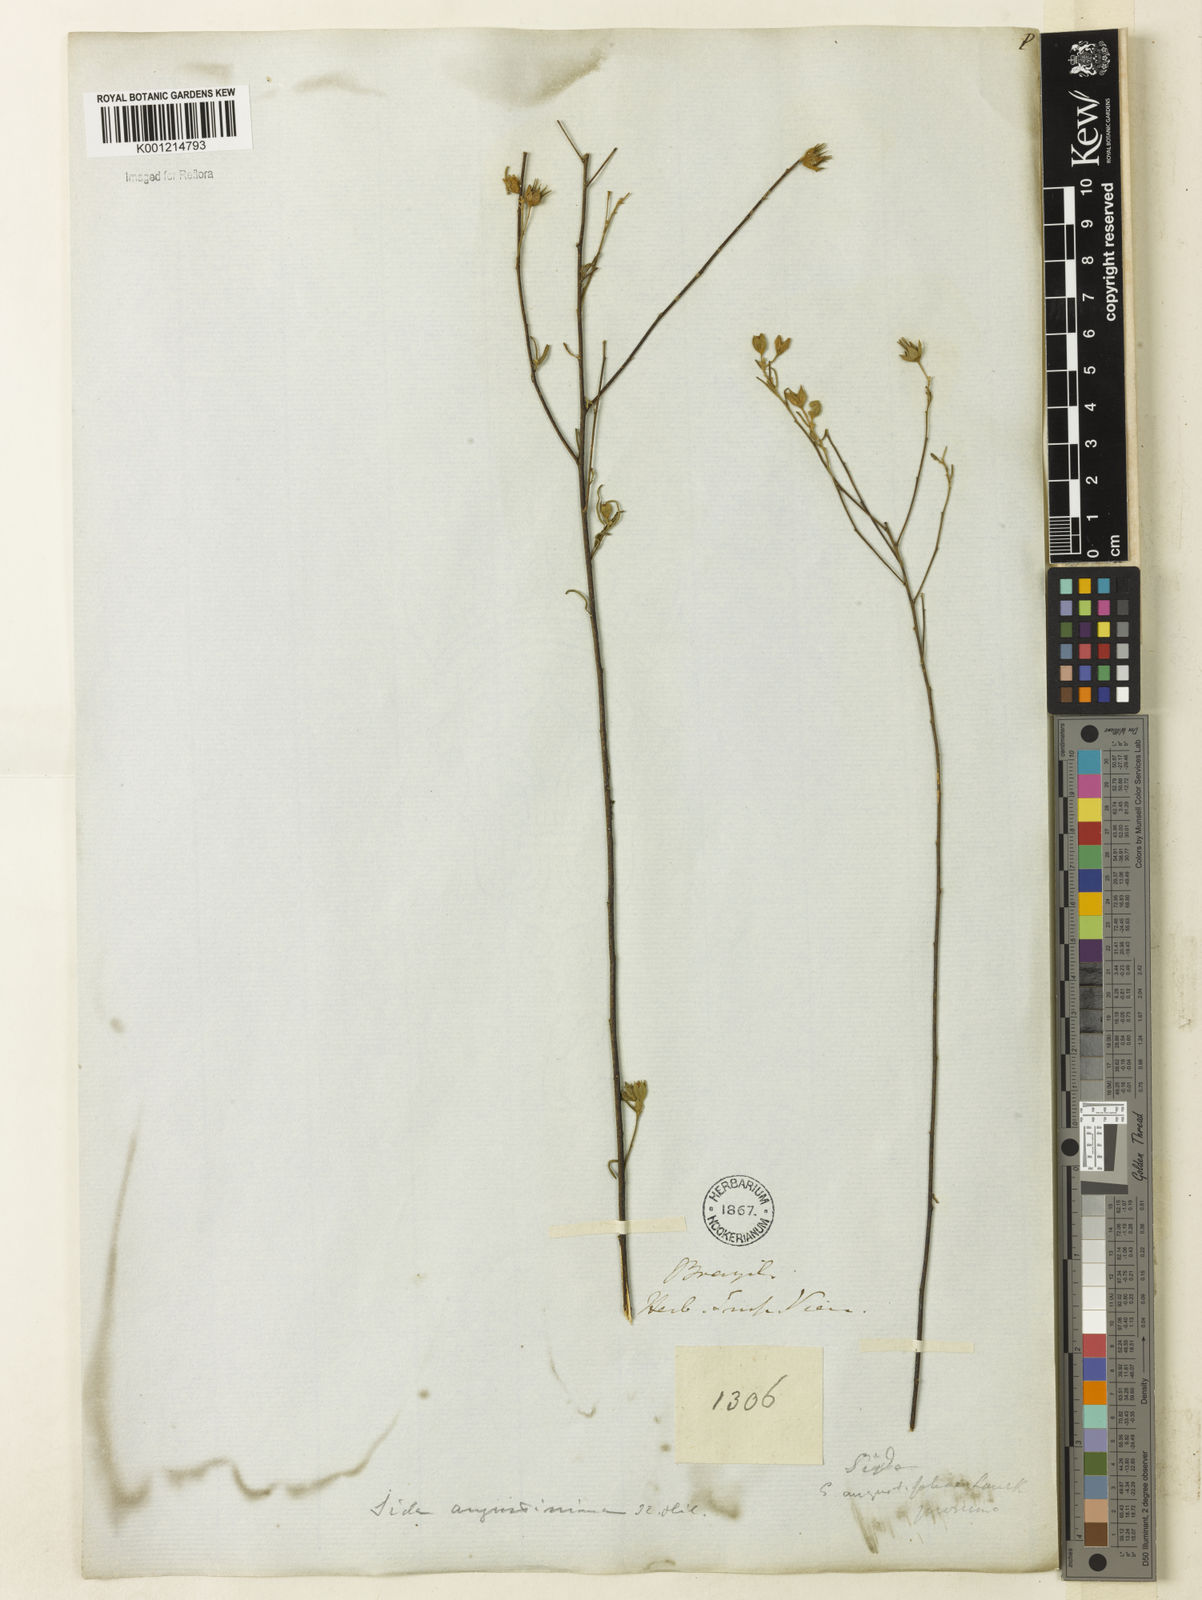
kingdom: Plantae
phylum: Tracheophyta
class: Magnoliopsida
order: Malvales
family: Malvaceae
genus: Sida
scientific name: Sida angustissima
